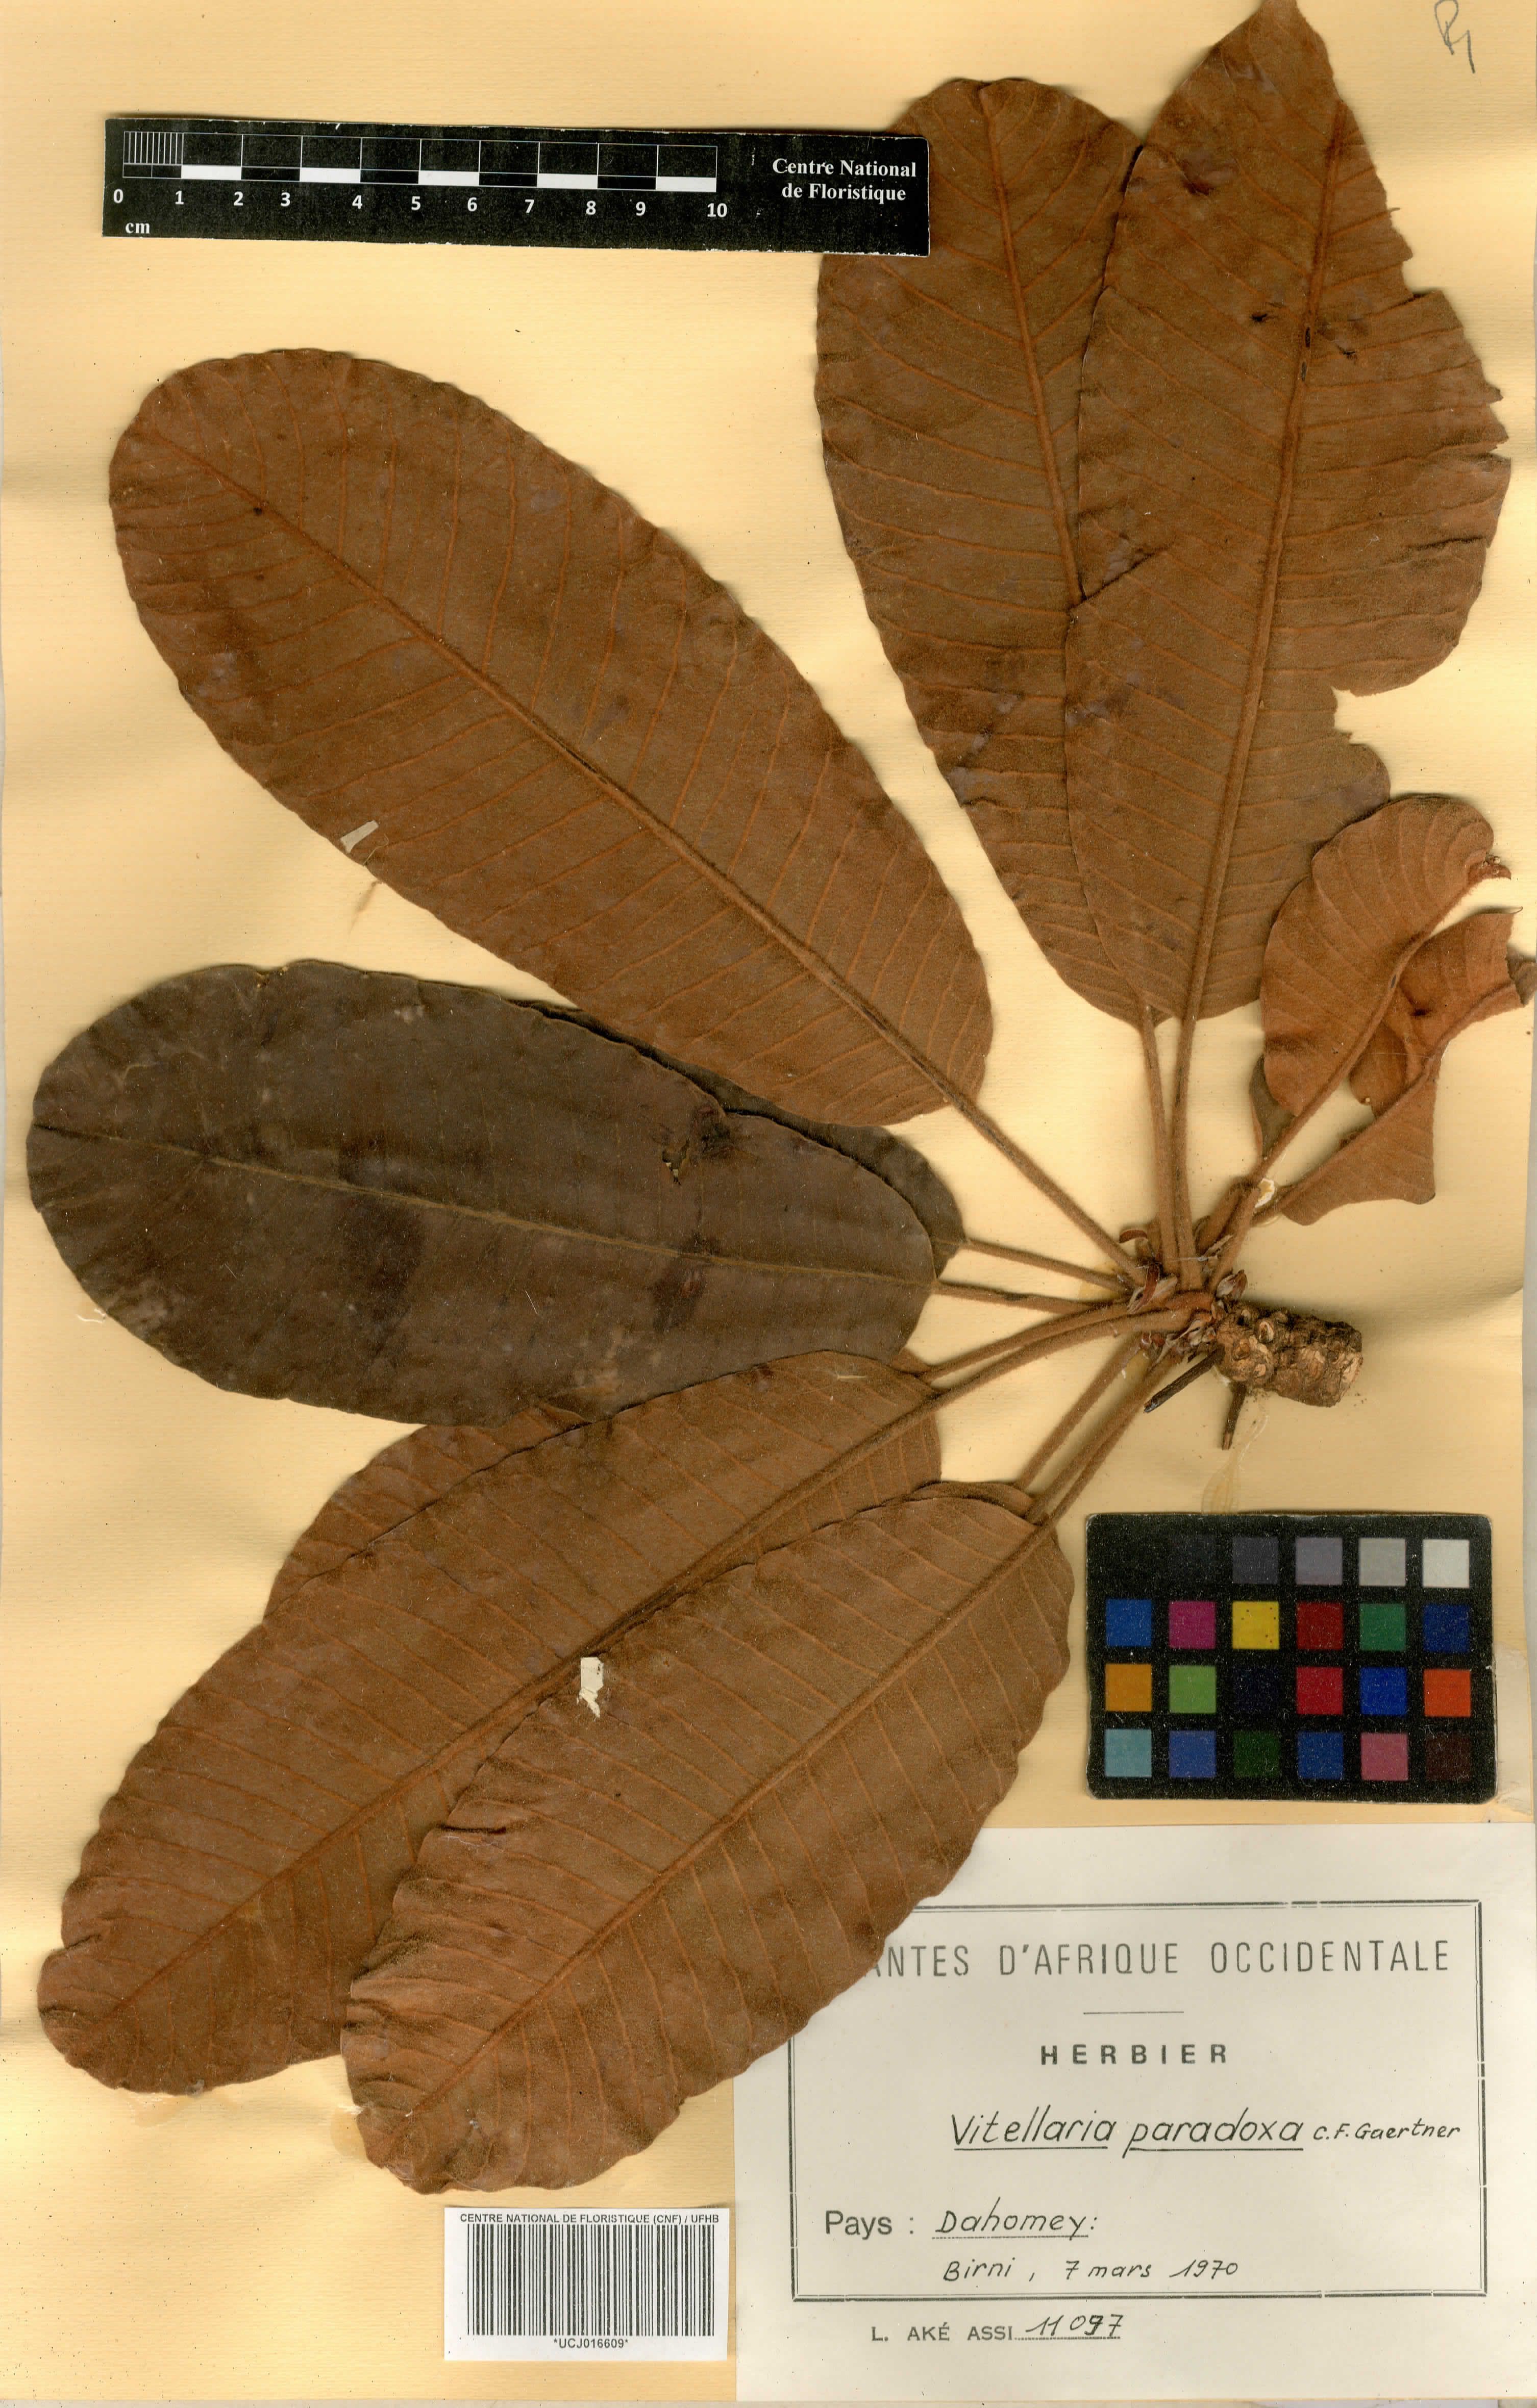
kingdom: Plantae
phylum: Tracheophyta
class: Magnoliopsida
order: Ericales
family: Sapotaceae
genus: Vitellaria
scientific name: Vitellaria paradoxa
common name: Shea butter tree
